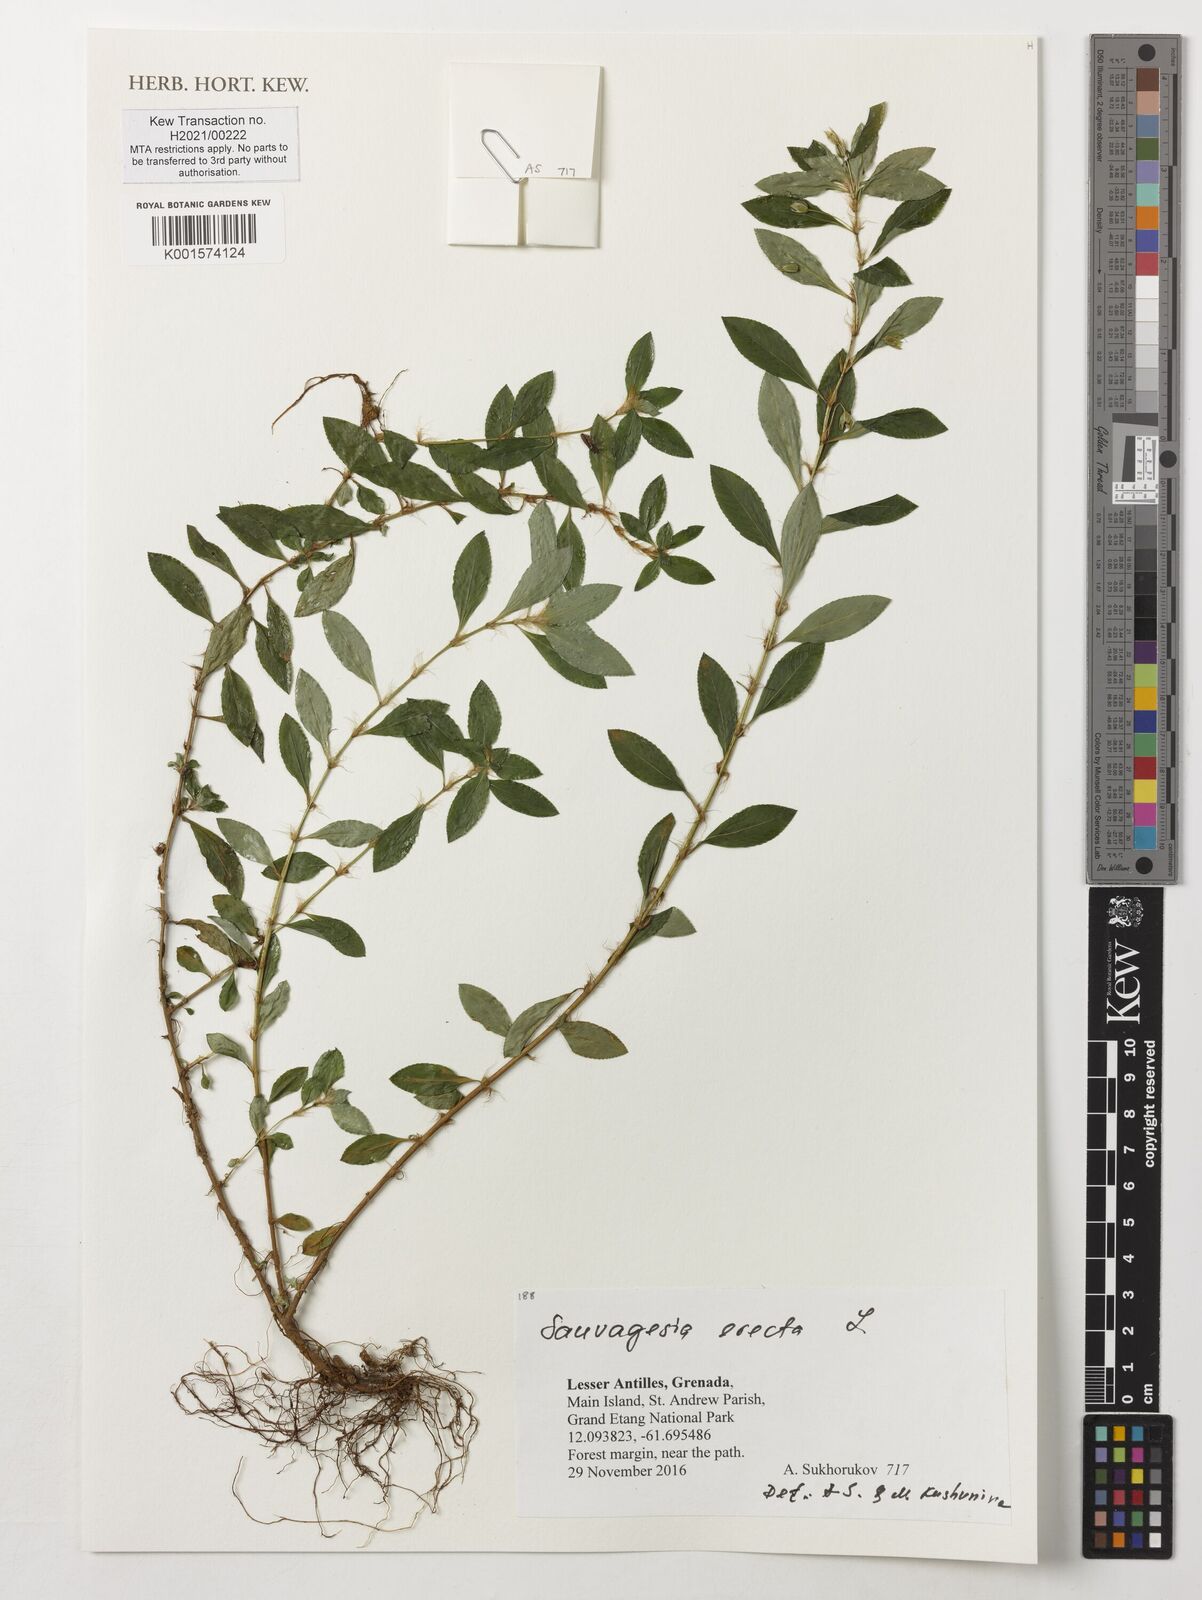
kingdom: Plantae
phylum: Tracheophyta
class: Magnoliopsida
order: Malpighiales
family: Ochnaceae
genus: Sauvagesia
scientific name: Sauvagesia erecta
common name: Creole tea
